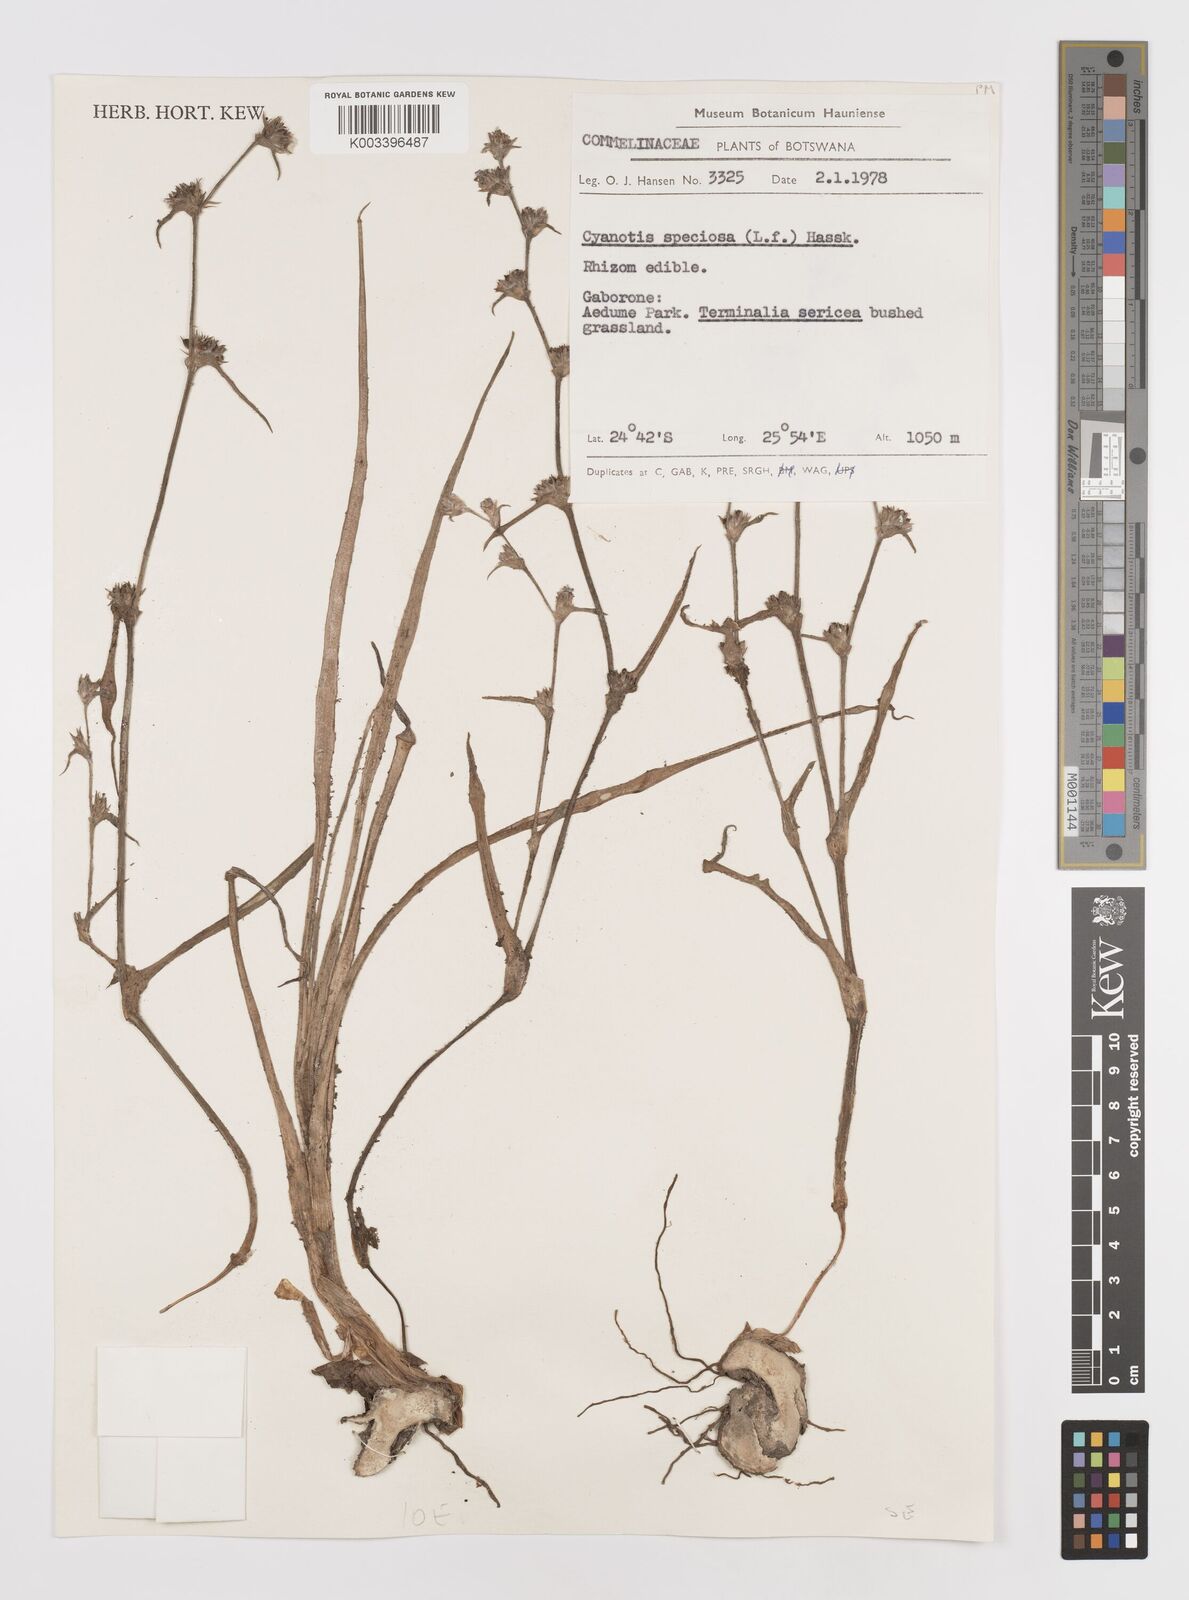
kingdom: Plantae
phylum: Tracheophyta
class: Liliopsida
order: Commelinales
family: Commelinaceae
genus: Cyanotis
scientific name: Cyanotis speciosa
